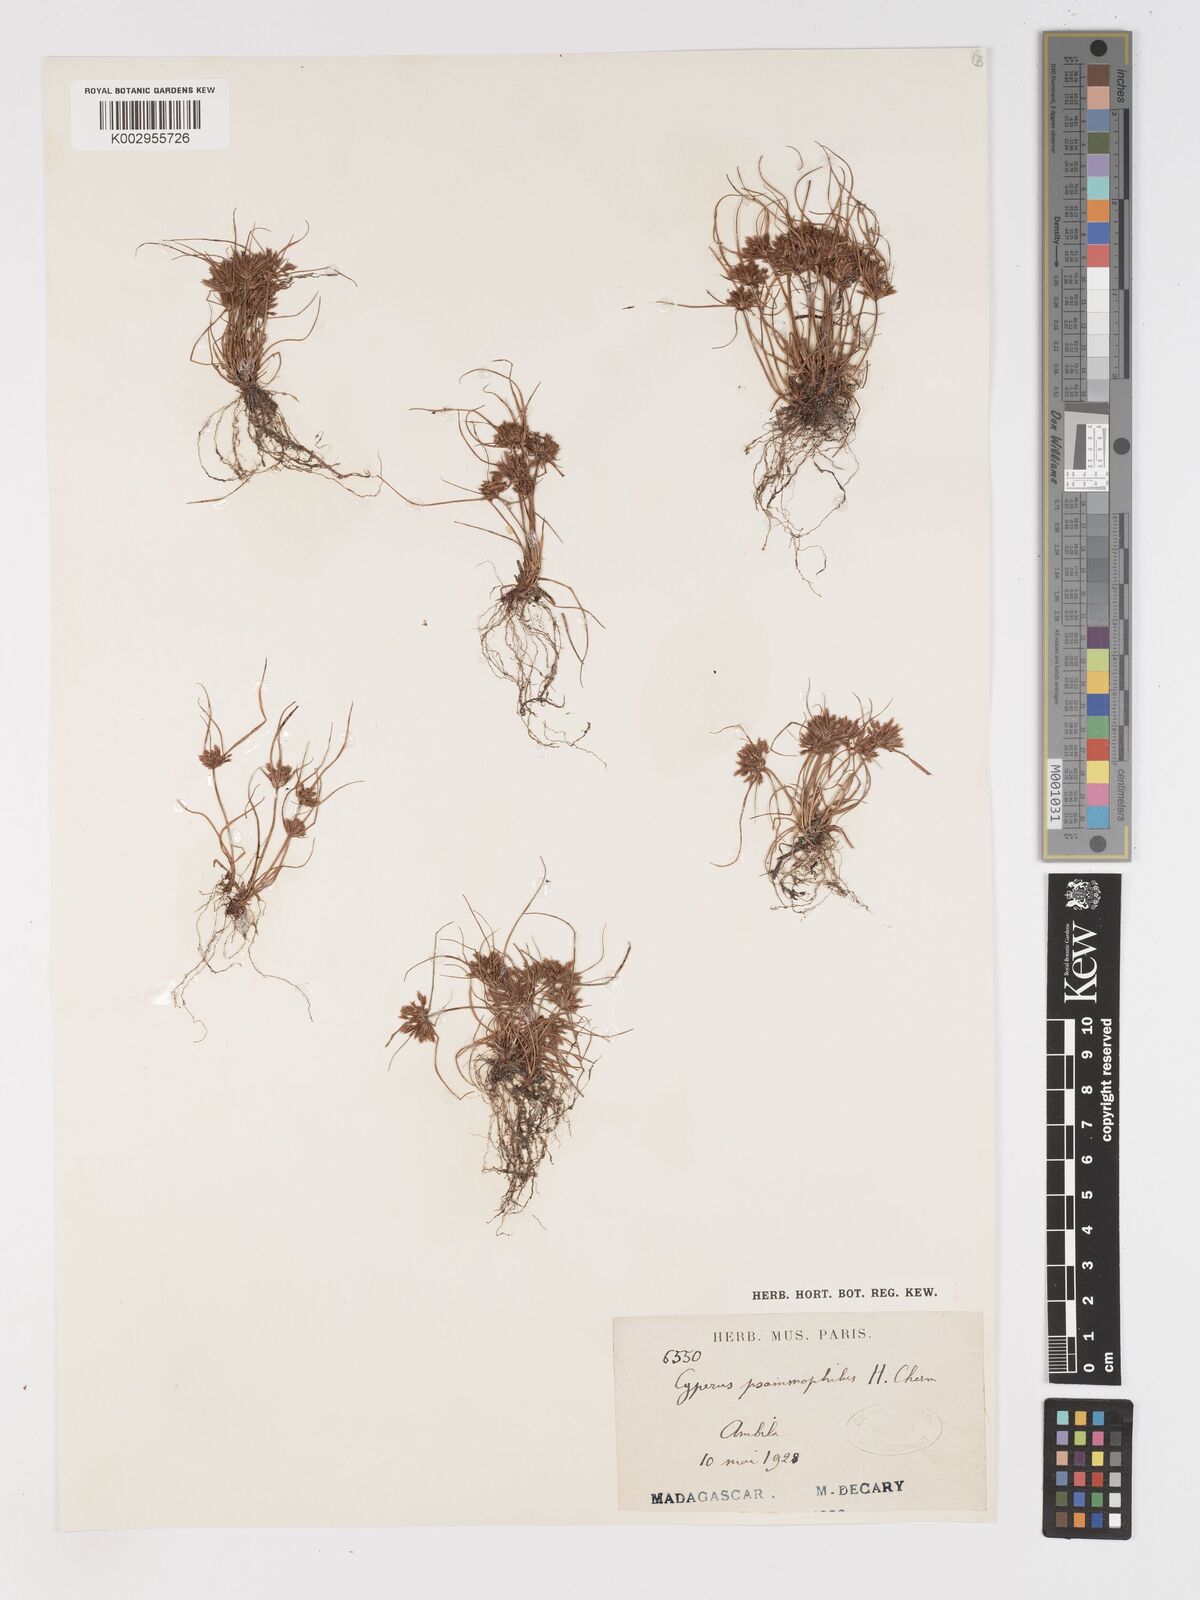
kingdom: Plantae
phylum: Tracheophyta
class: Liliopsida
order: Poales
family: Cyperaceae
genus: Cyperus
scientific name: Cyperus psammophilus
